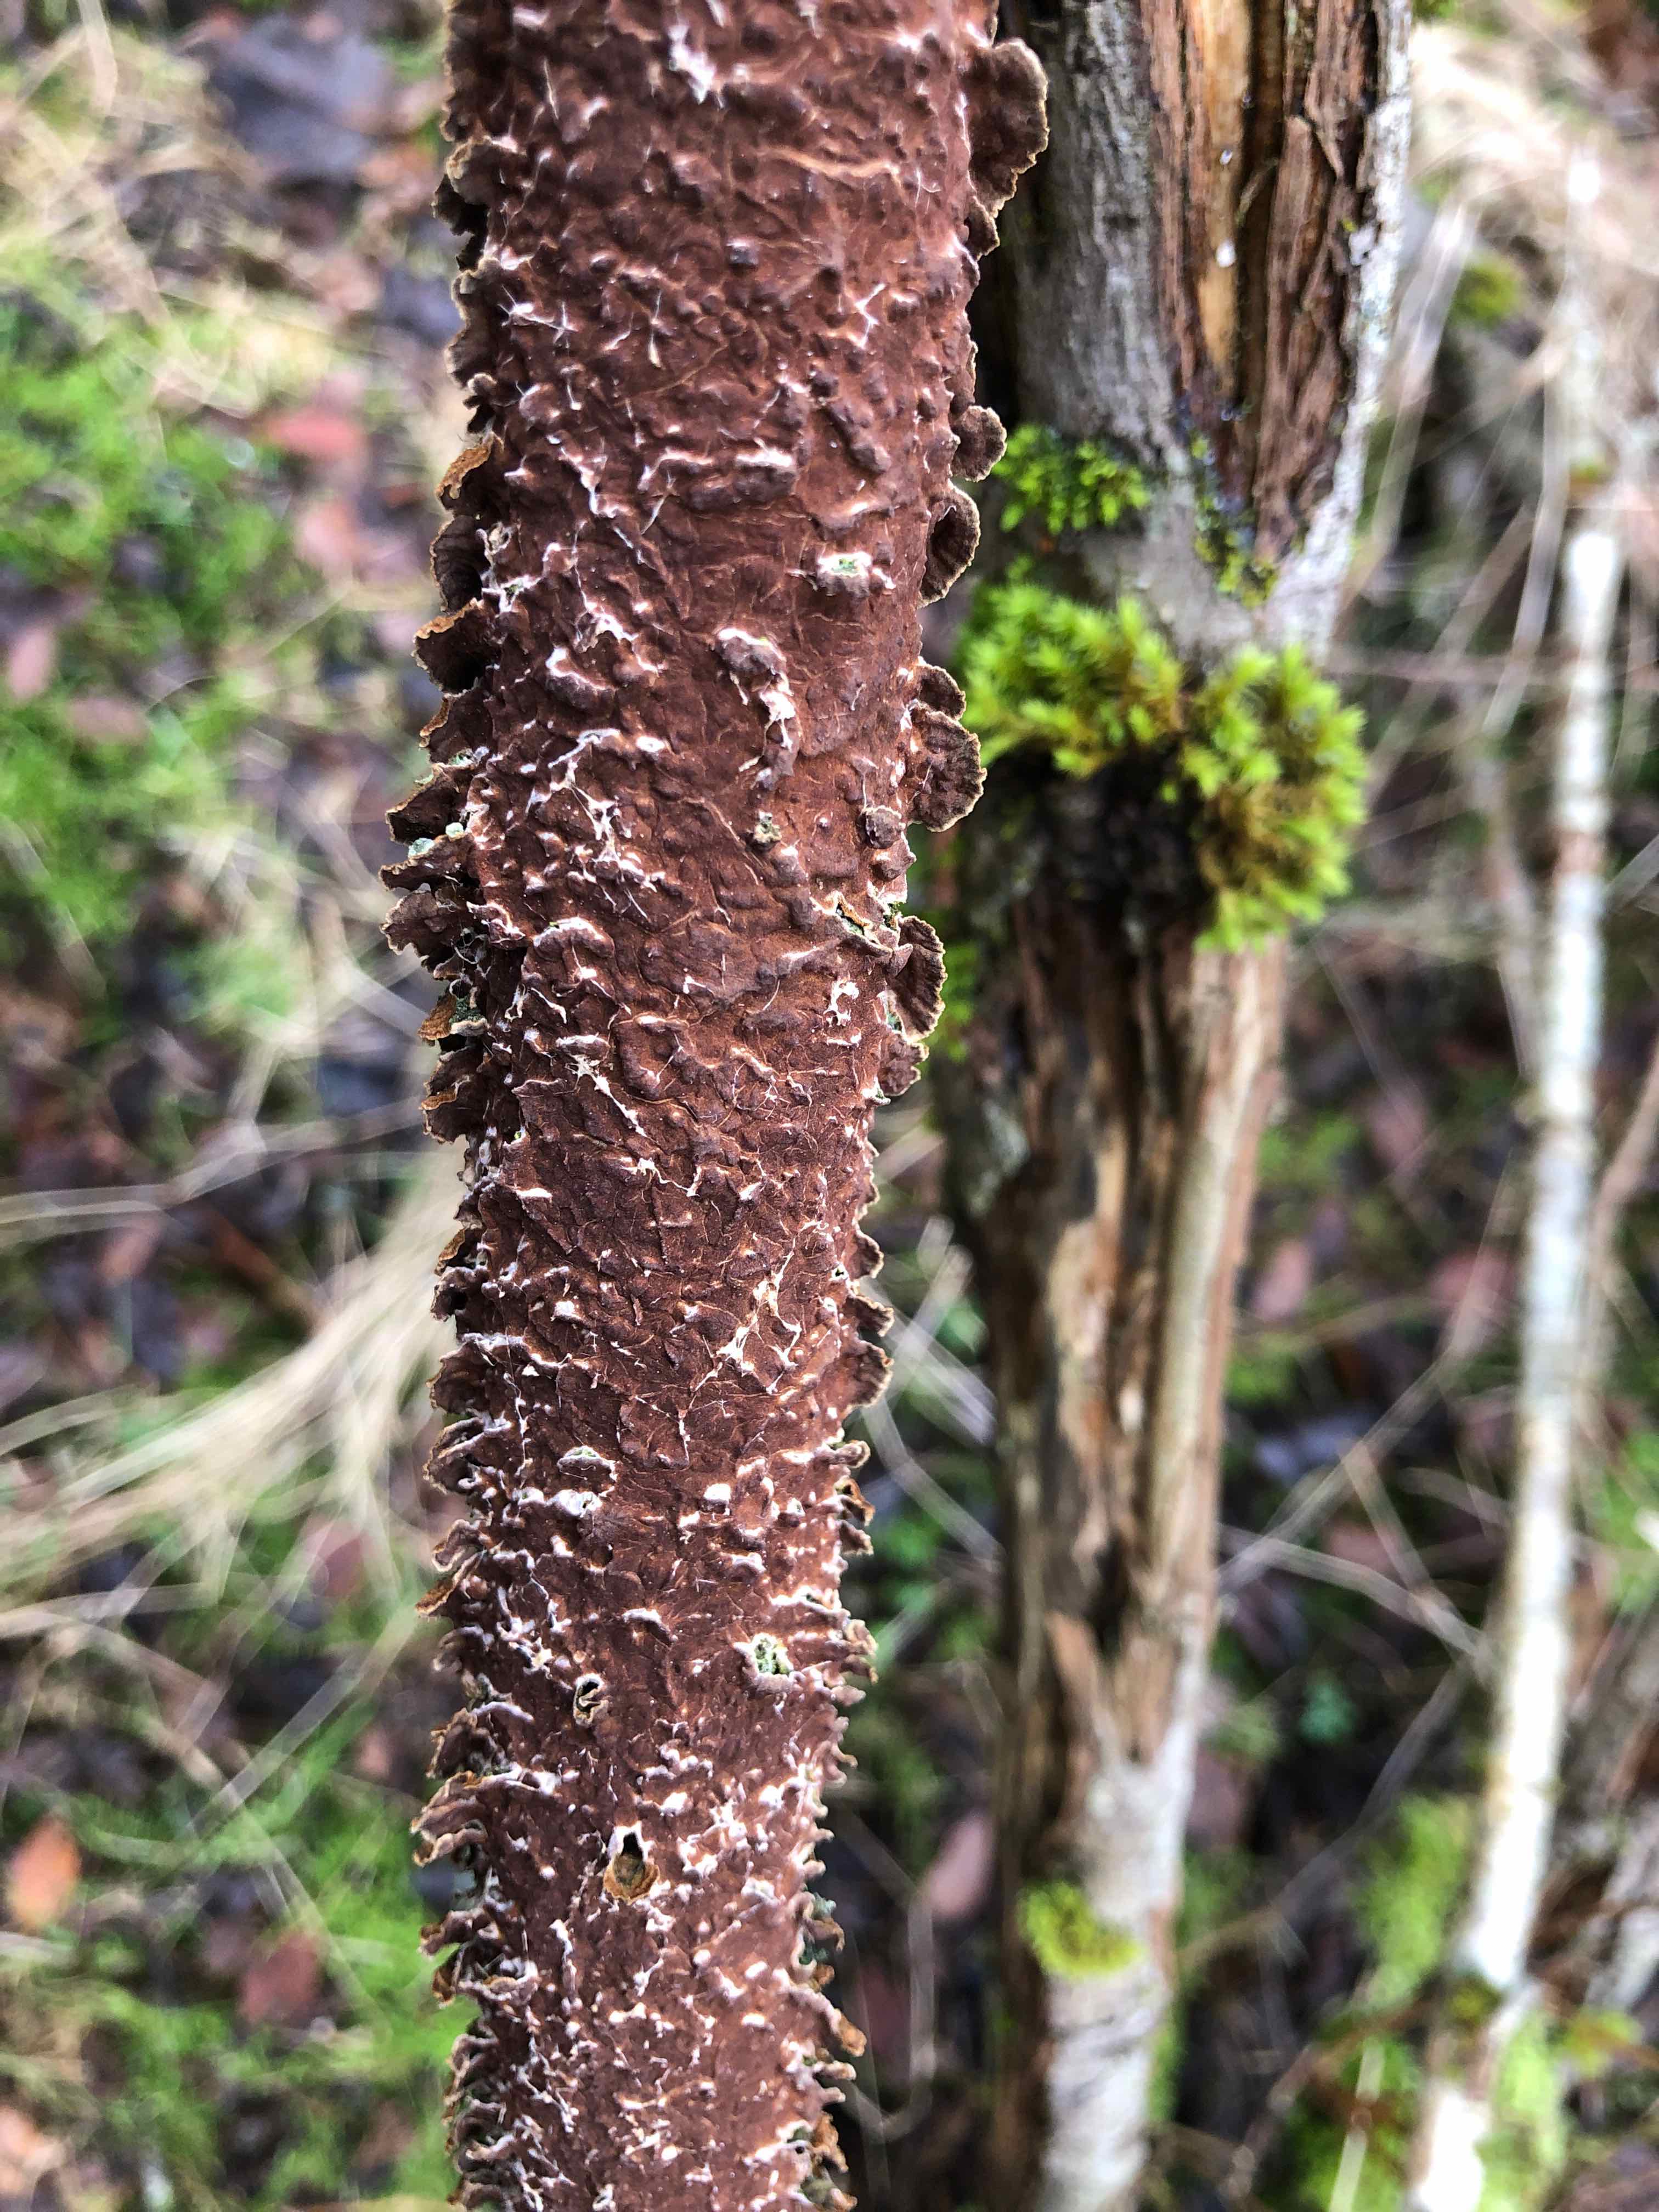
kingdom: Fungi
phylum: Basidiomycota
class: Agaricomycetes
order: Hymenochaetales
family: Hymenochaetaceae
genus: Hydnoporia
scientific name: Hydnoporia tabacina
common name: tobaksbrun ruslædersvamp
